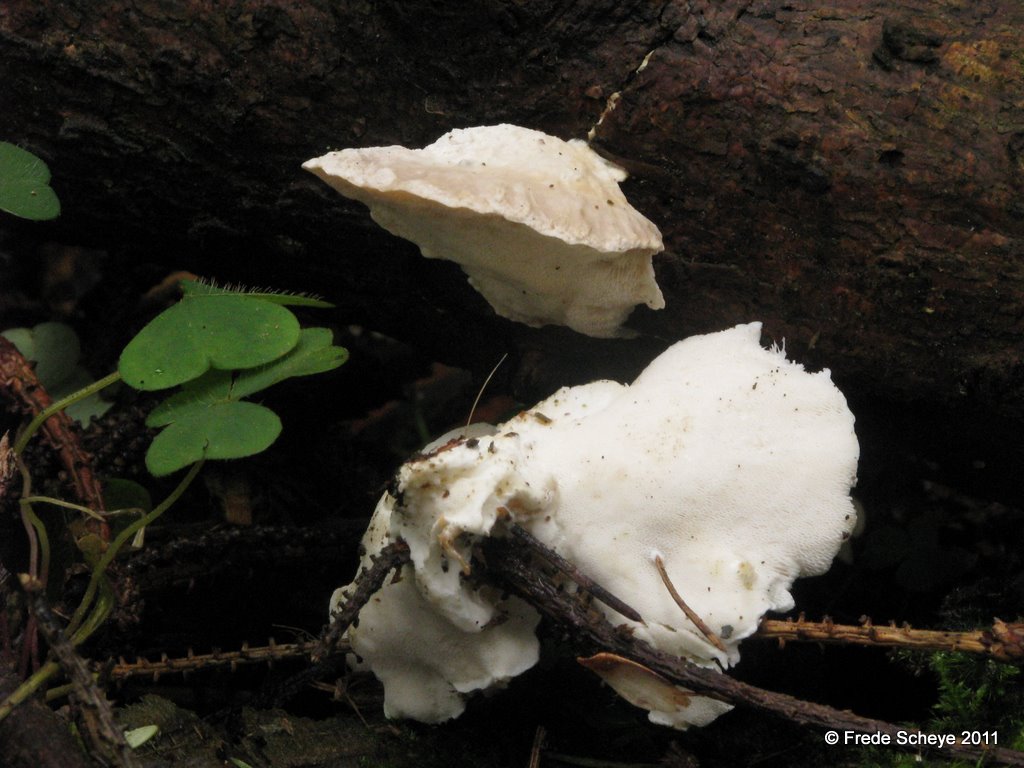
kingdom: Fungi
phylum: Basidiomycota
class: Agaricomycetes
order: Polyporales
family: Incrustoporiaceae
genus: Tyromyces
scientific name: Tyromyces lacteus
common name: mælkehvid kødporesvamp
